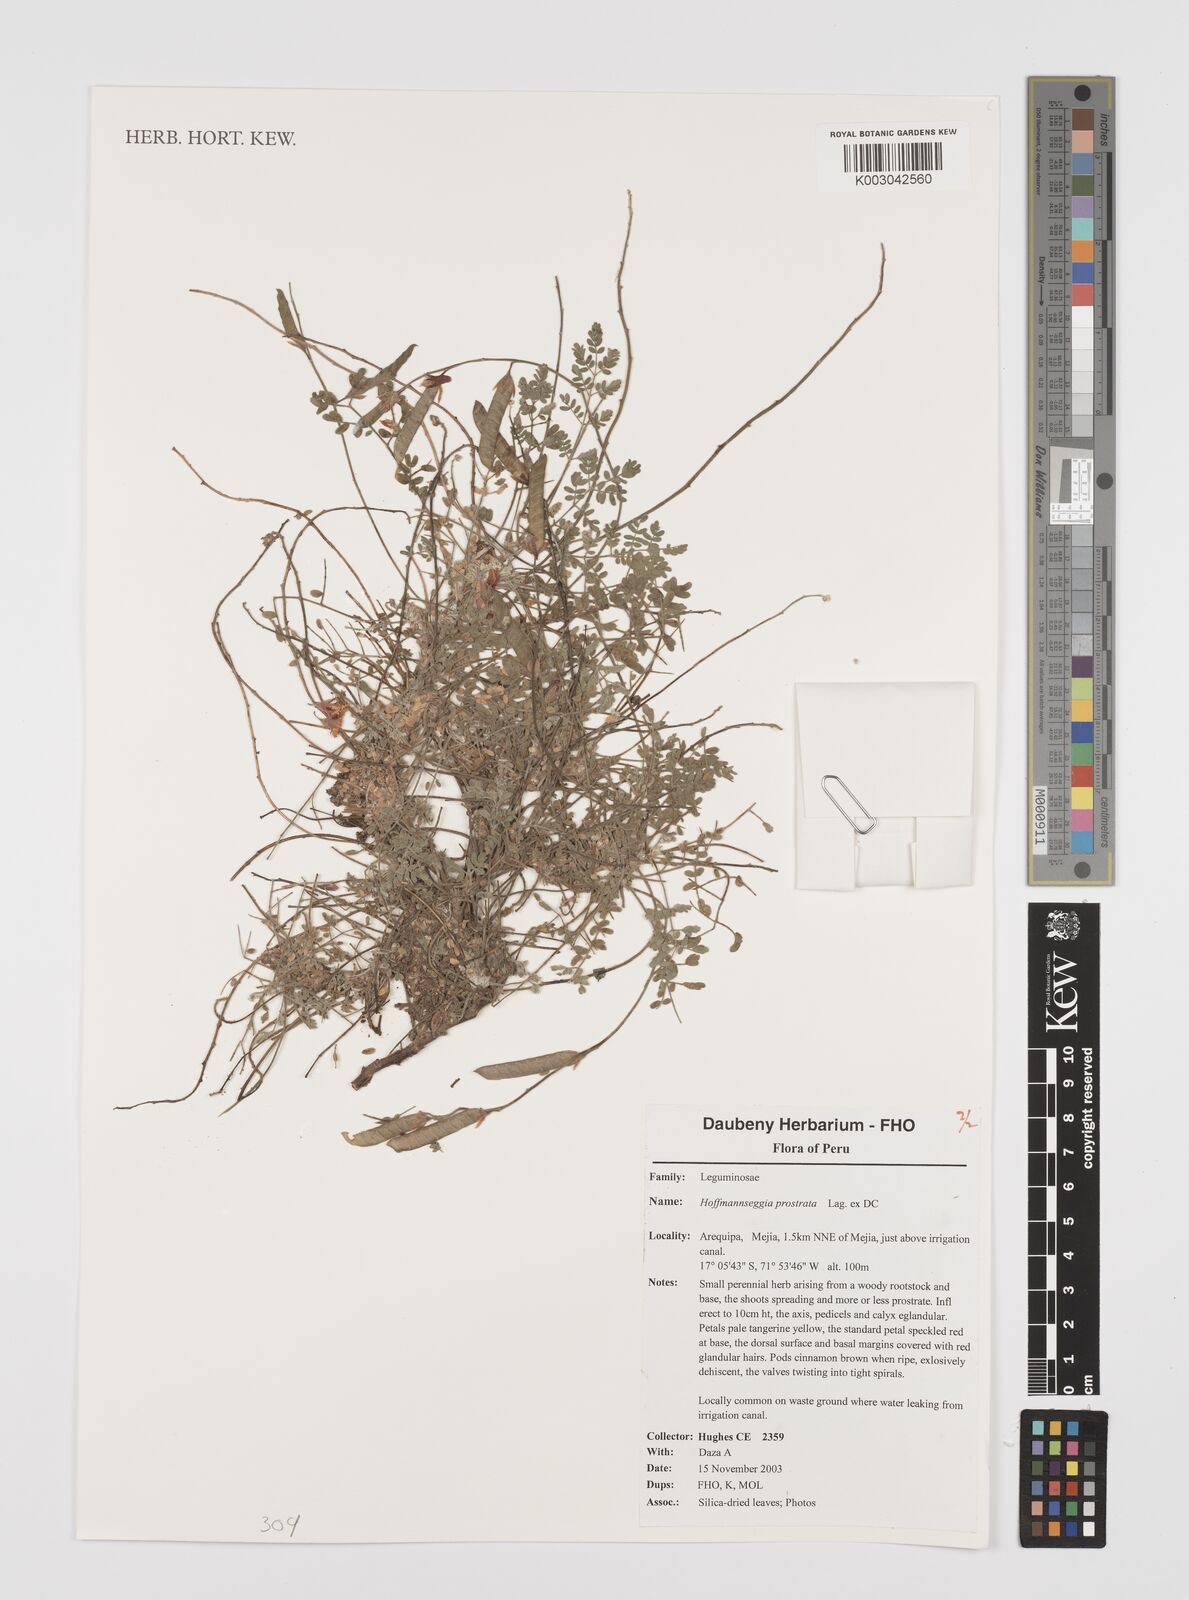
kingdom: Plantae
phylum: Tracheophyta
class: Magnoliopsida
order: Fabales
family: Fabaceae
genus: Hoffmannseggia
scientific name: Hoffmannseggia prostrata
